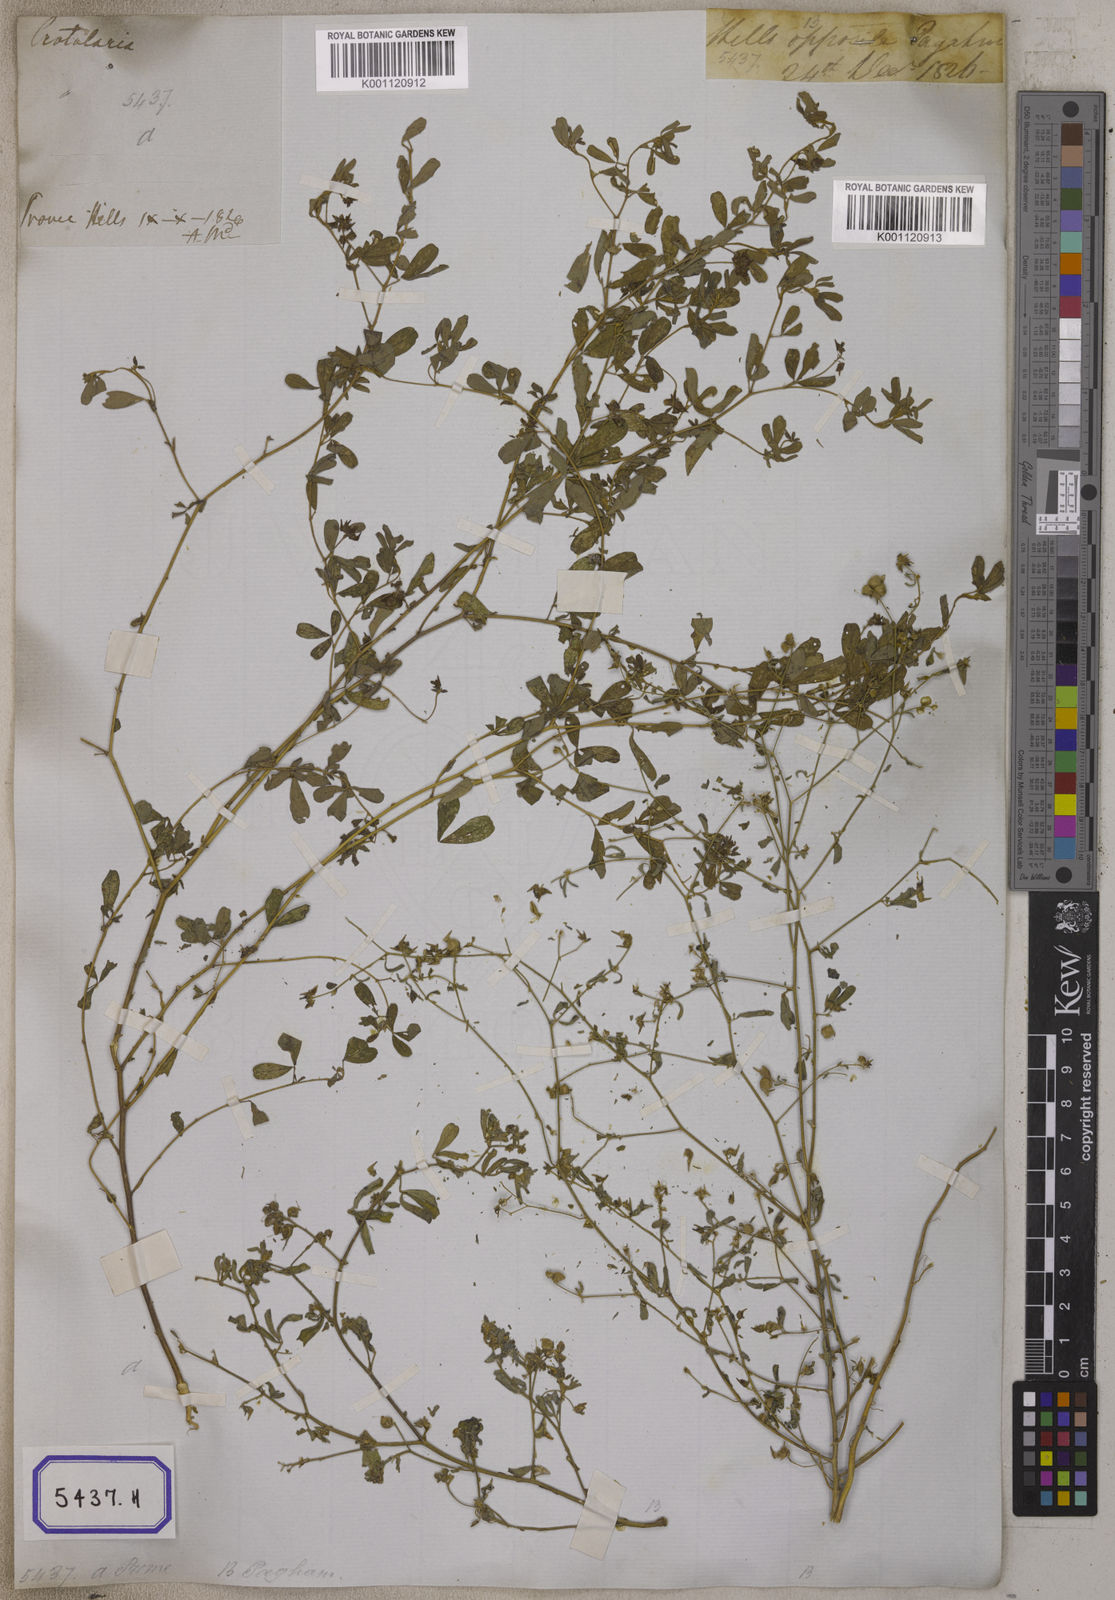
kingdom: Plantae
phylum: Tracheophyta
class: Magnoliopsida
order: Fabales
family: Fabaceae
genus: Crotalaria
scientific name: Crotalaria
